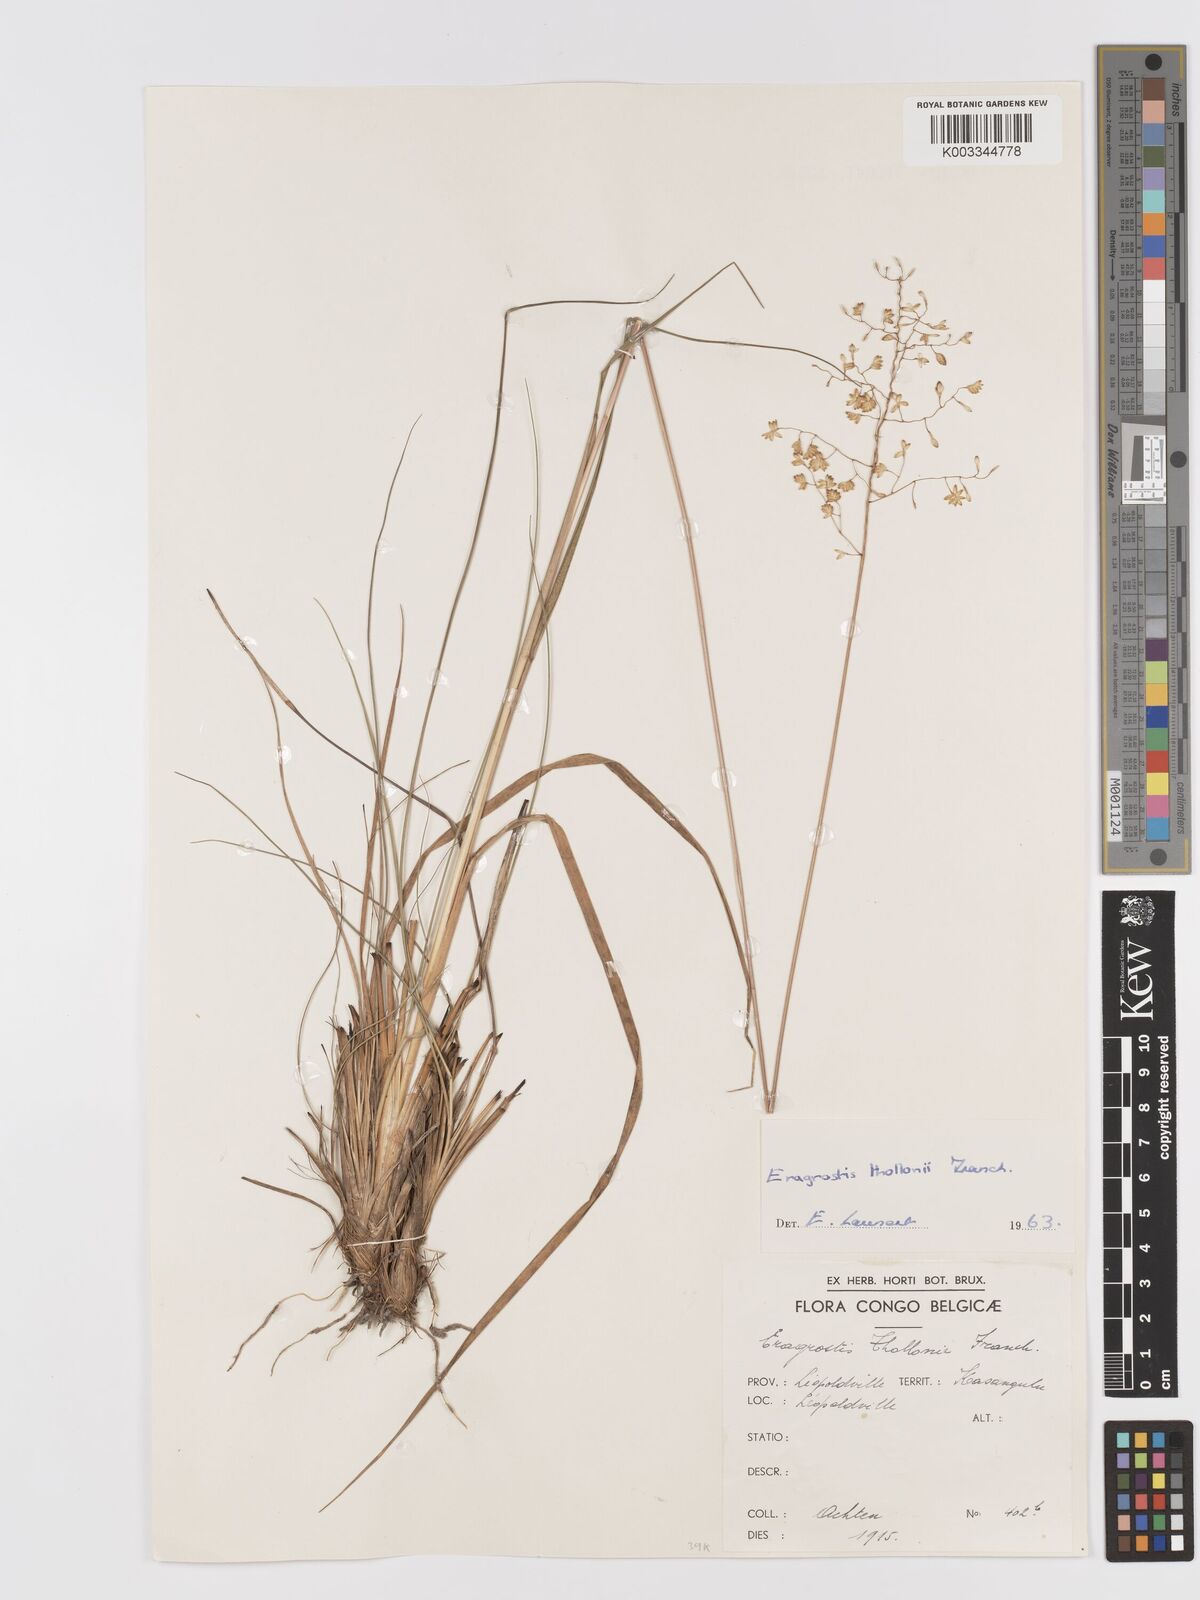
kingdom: Plantae
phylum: Tracheophyta
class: Liliopsida
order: Poales
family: Poaceae
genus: Eragrostis
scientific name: Eragrostis thollonii
